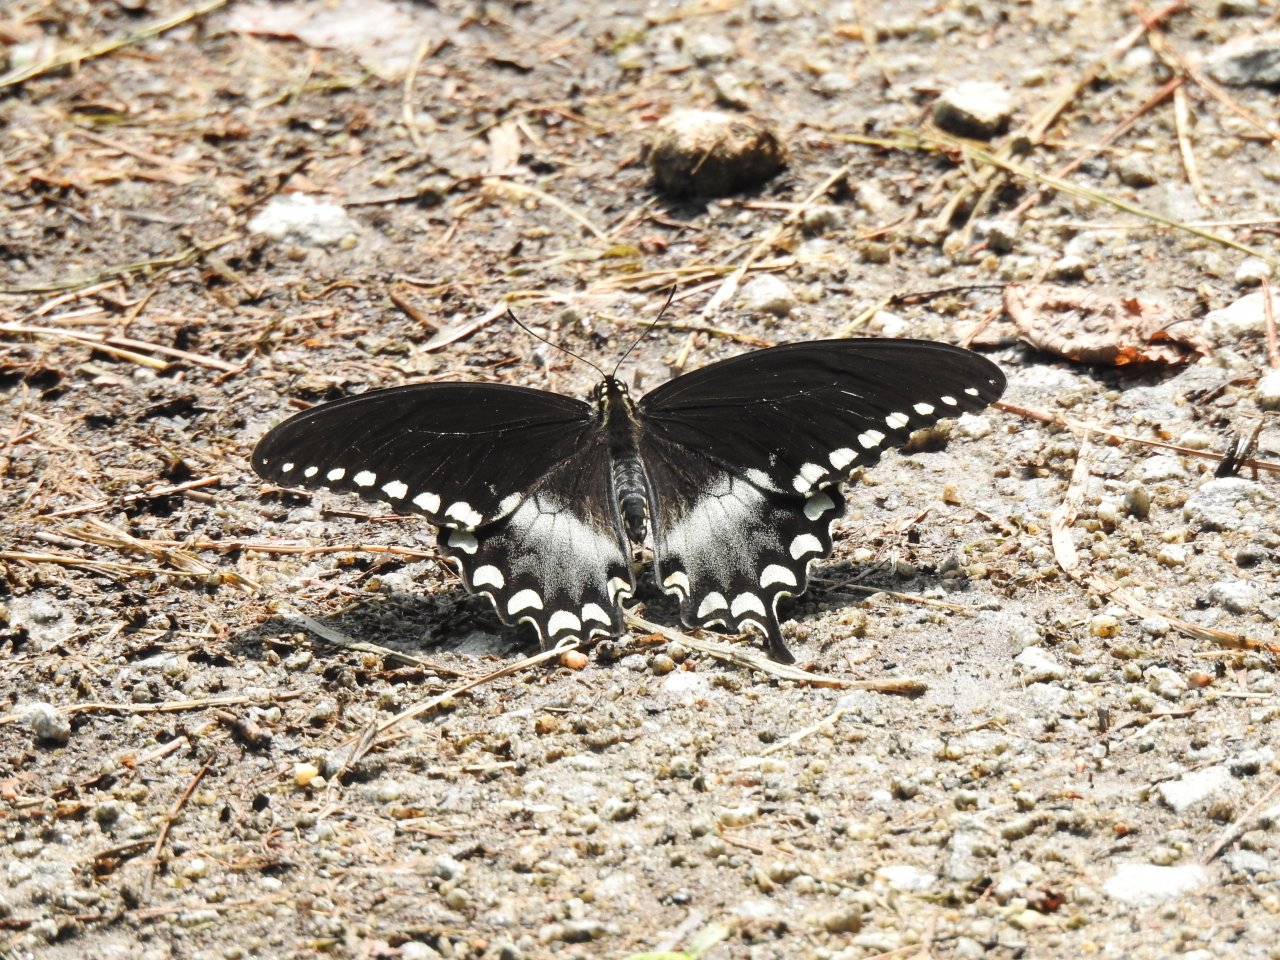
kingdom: Animalia
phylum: Arthropoda
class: Insecta
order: Lepidoptera
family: Papilionidae
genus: Pterourus
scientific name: Pterourus troilus
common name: Spicebush Swallowtail
